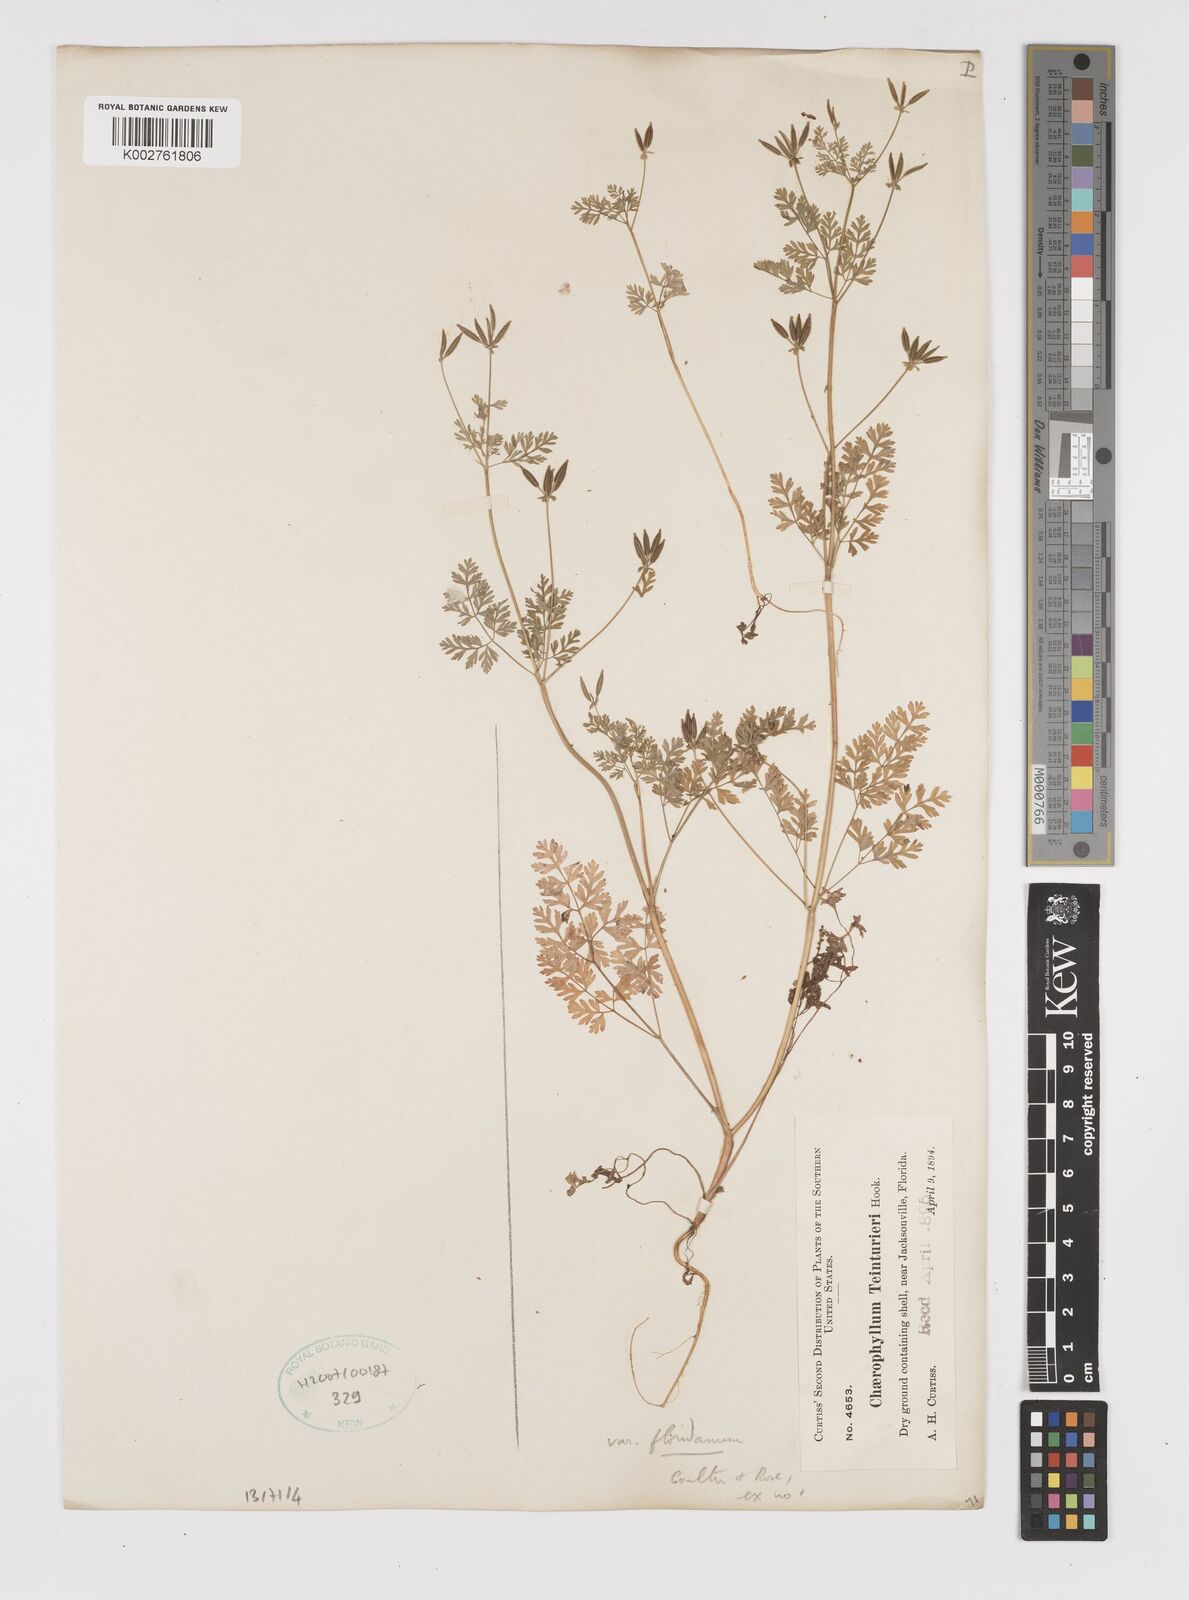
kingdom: Plantae
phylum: Tracheophyta
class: Magnoliopsida
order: Apiales
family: Apiaceae
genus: Chaerophyllum
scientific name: Chaerophyllum tainturieri
